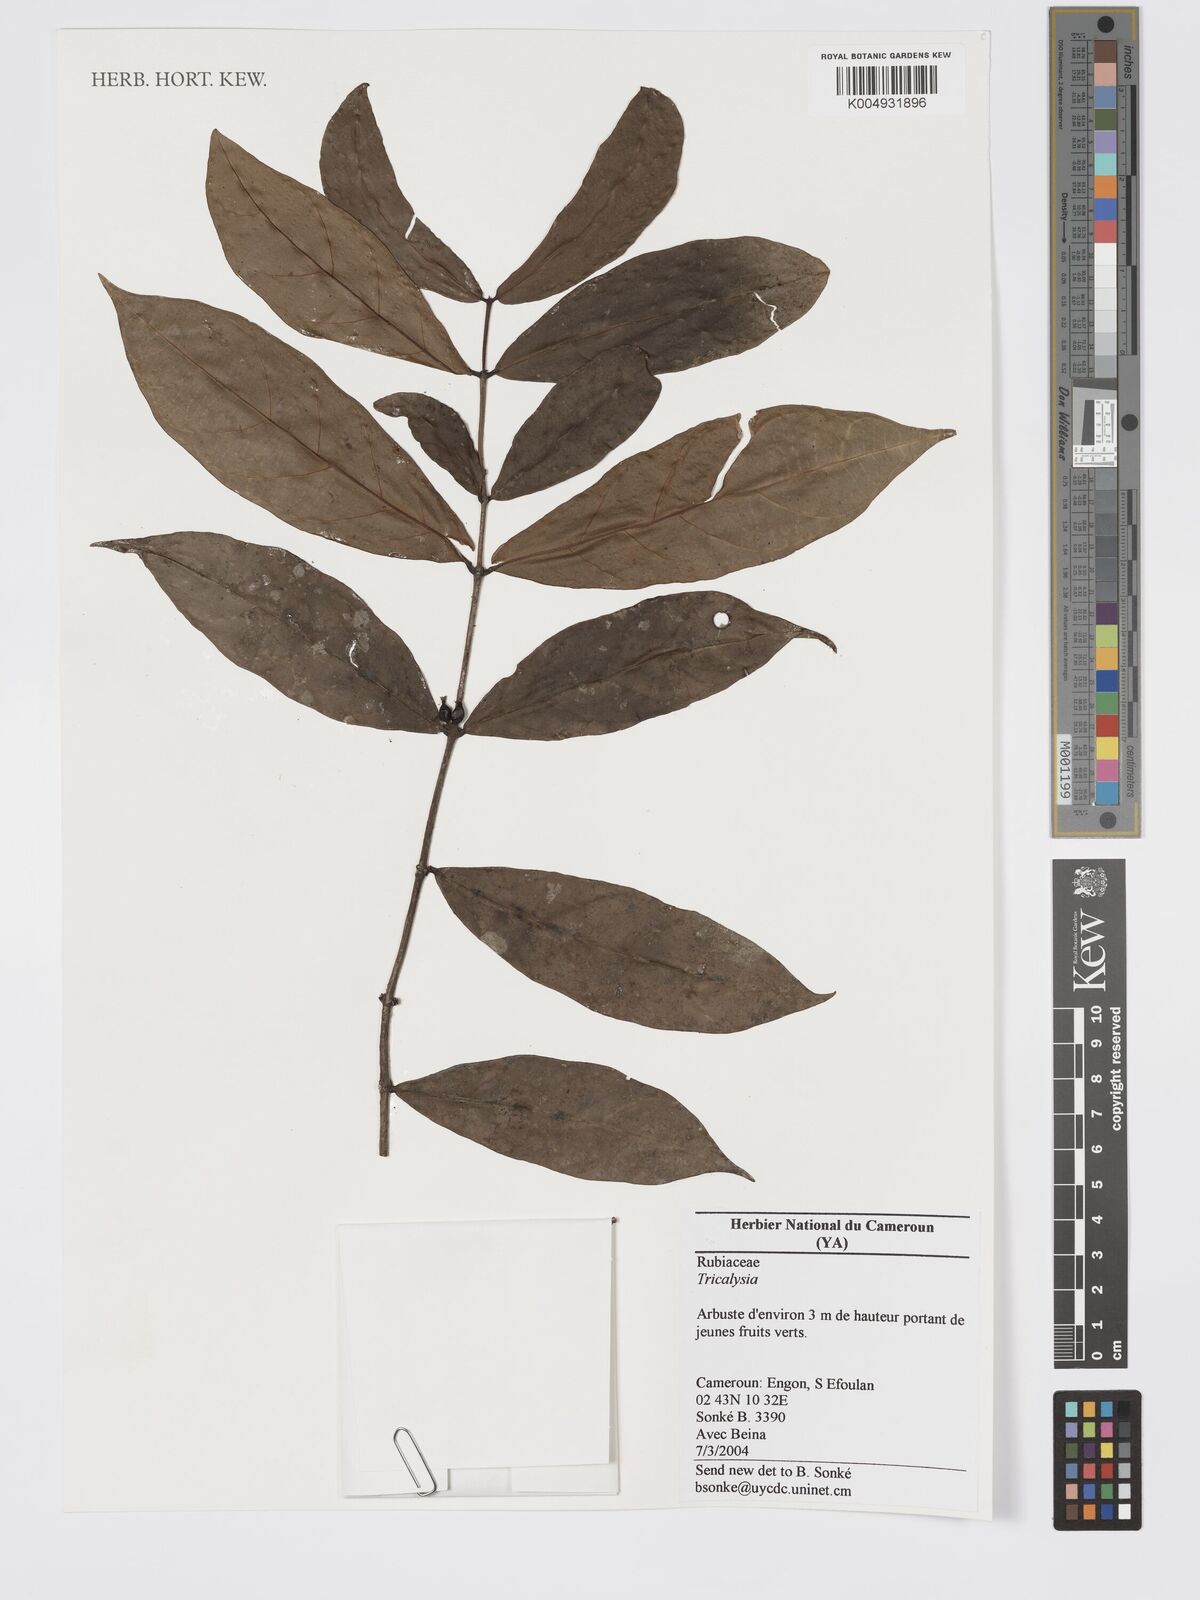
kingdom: Plantae
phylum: Tracheophyta
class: Magnoliopsida
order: Gentianales
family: Rubiaceae
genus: Tricalysia
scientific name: Tricalysia
